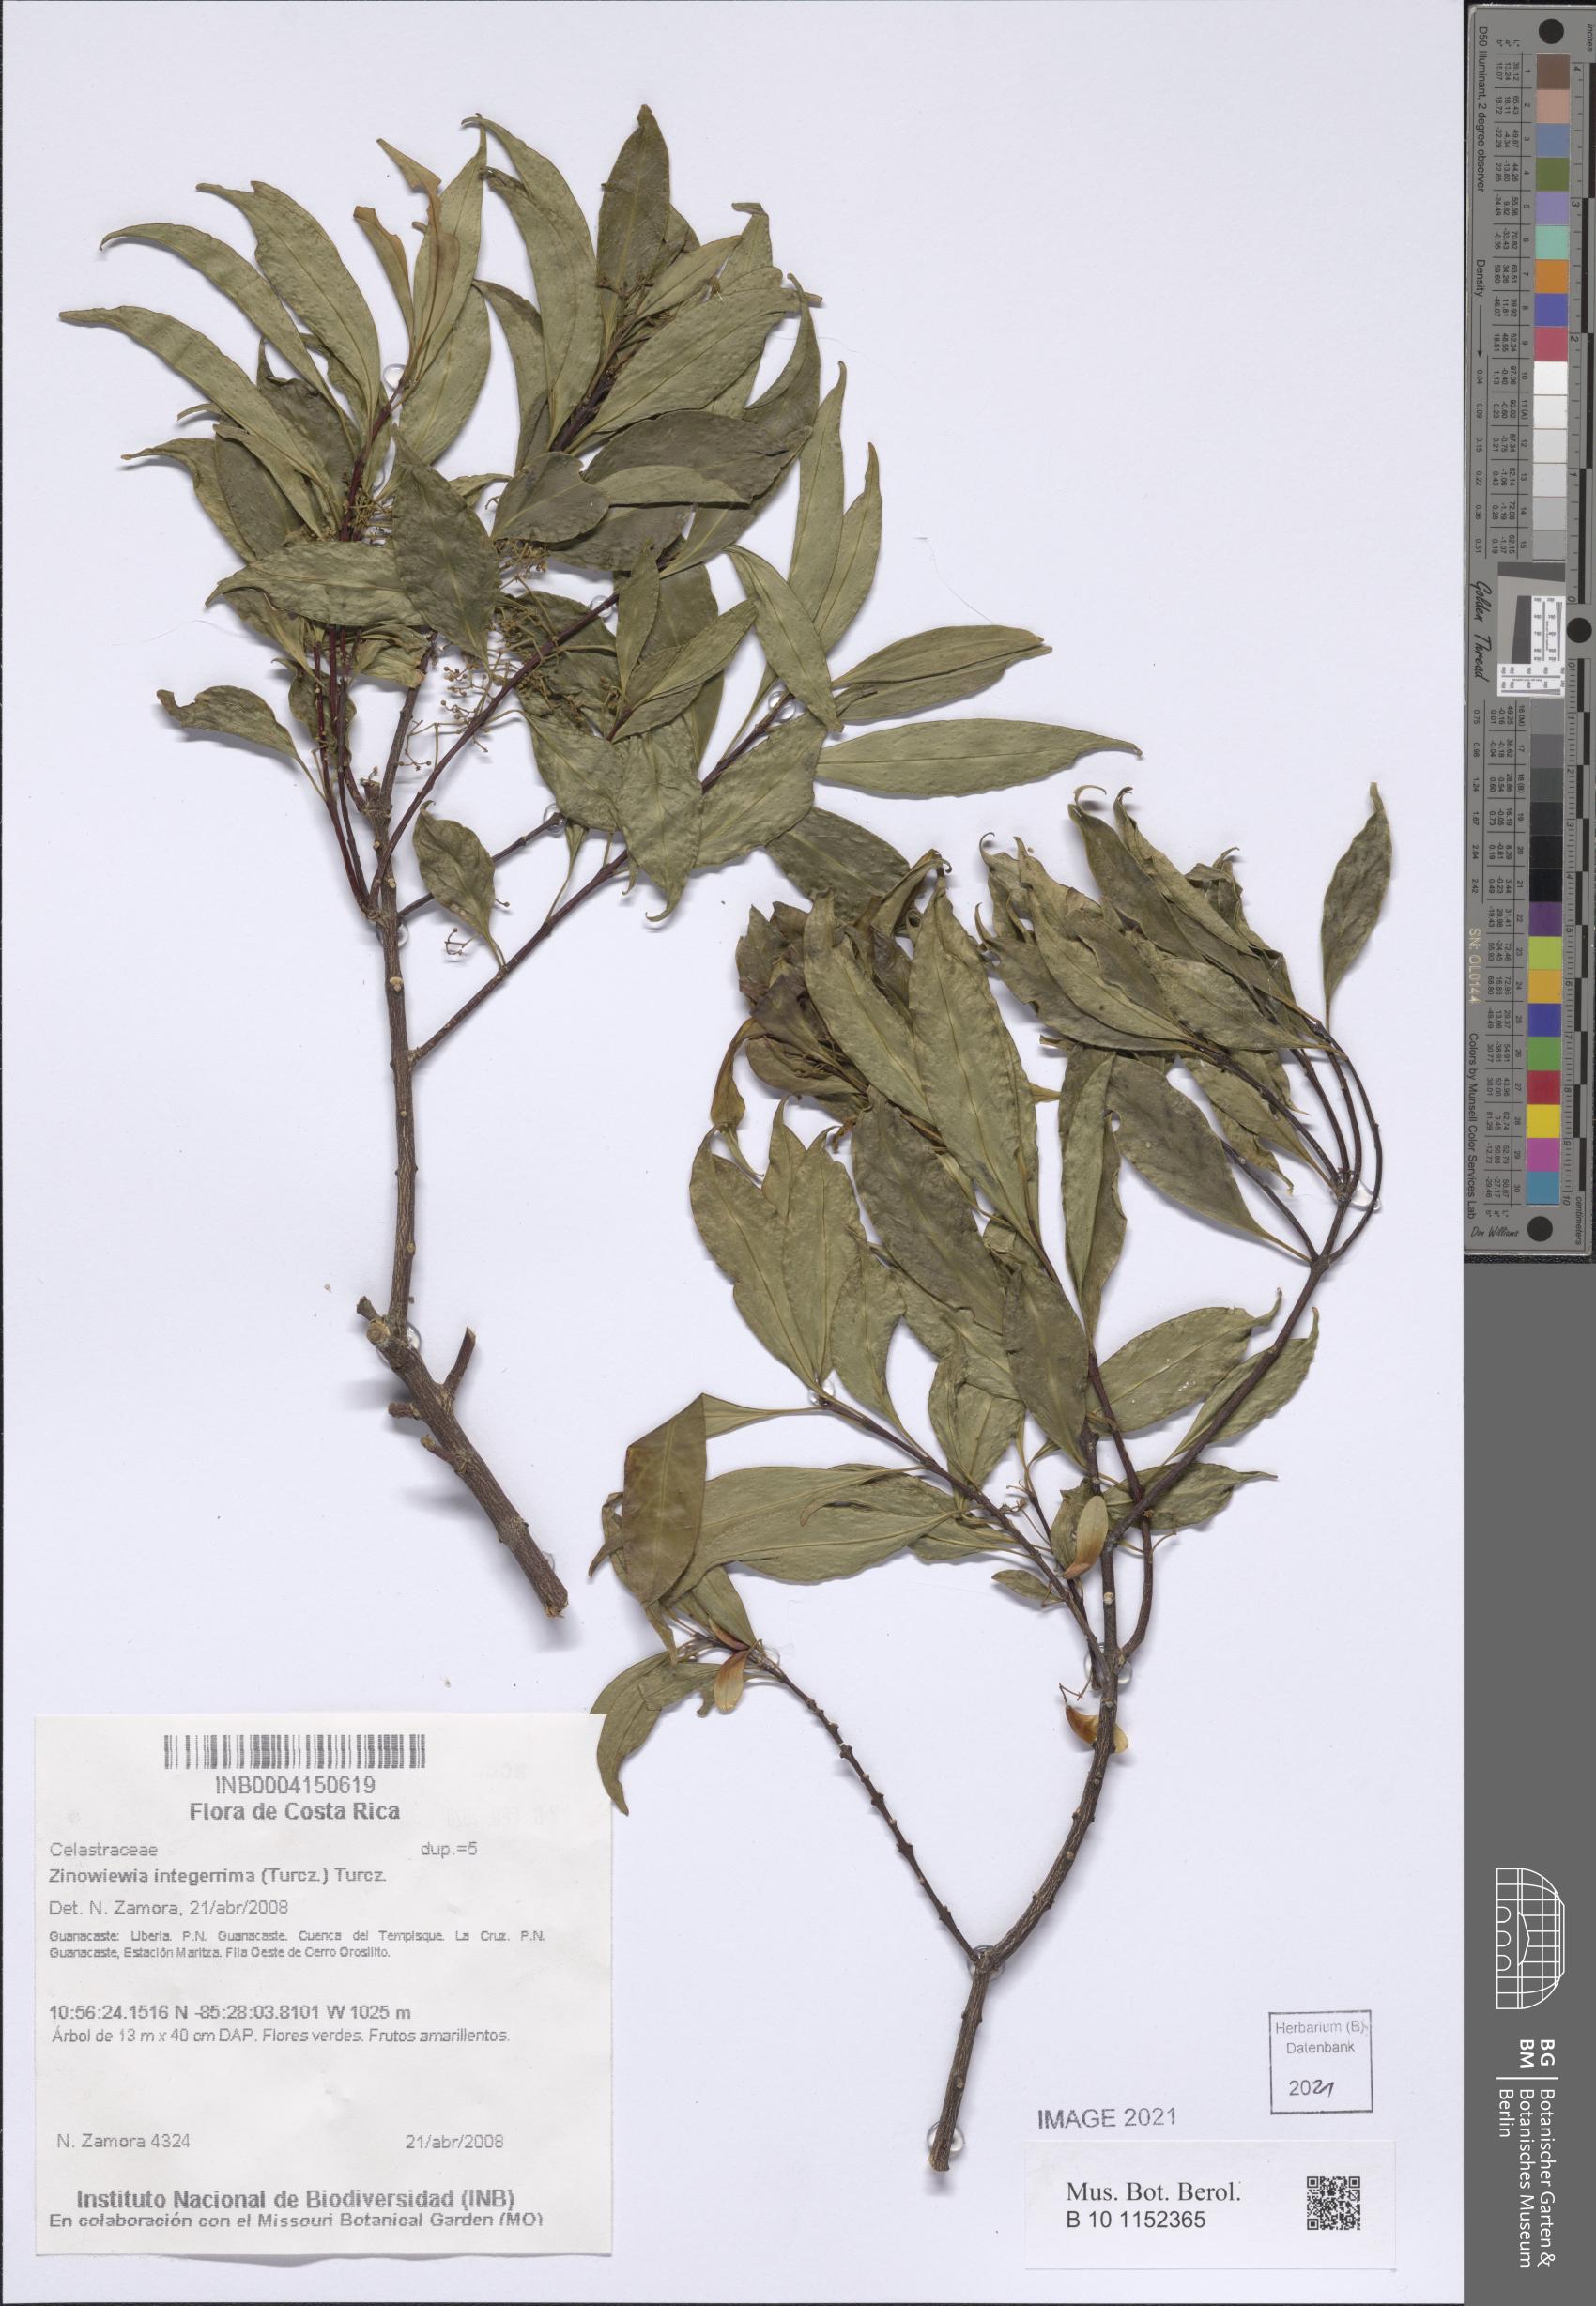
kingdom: Plantae
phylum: Tracheophyta
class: Magnoliopsida
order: Celastrales
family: Celastraceae
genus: Zinowiewia
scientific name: Zinowiewia integerrima
